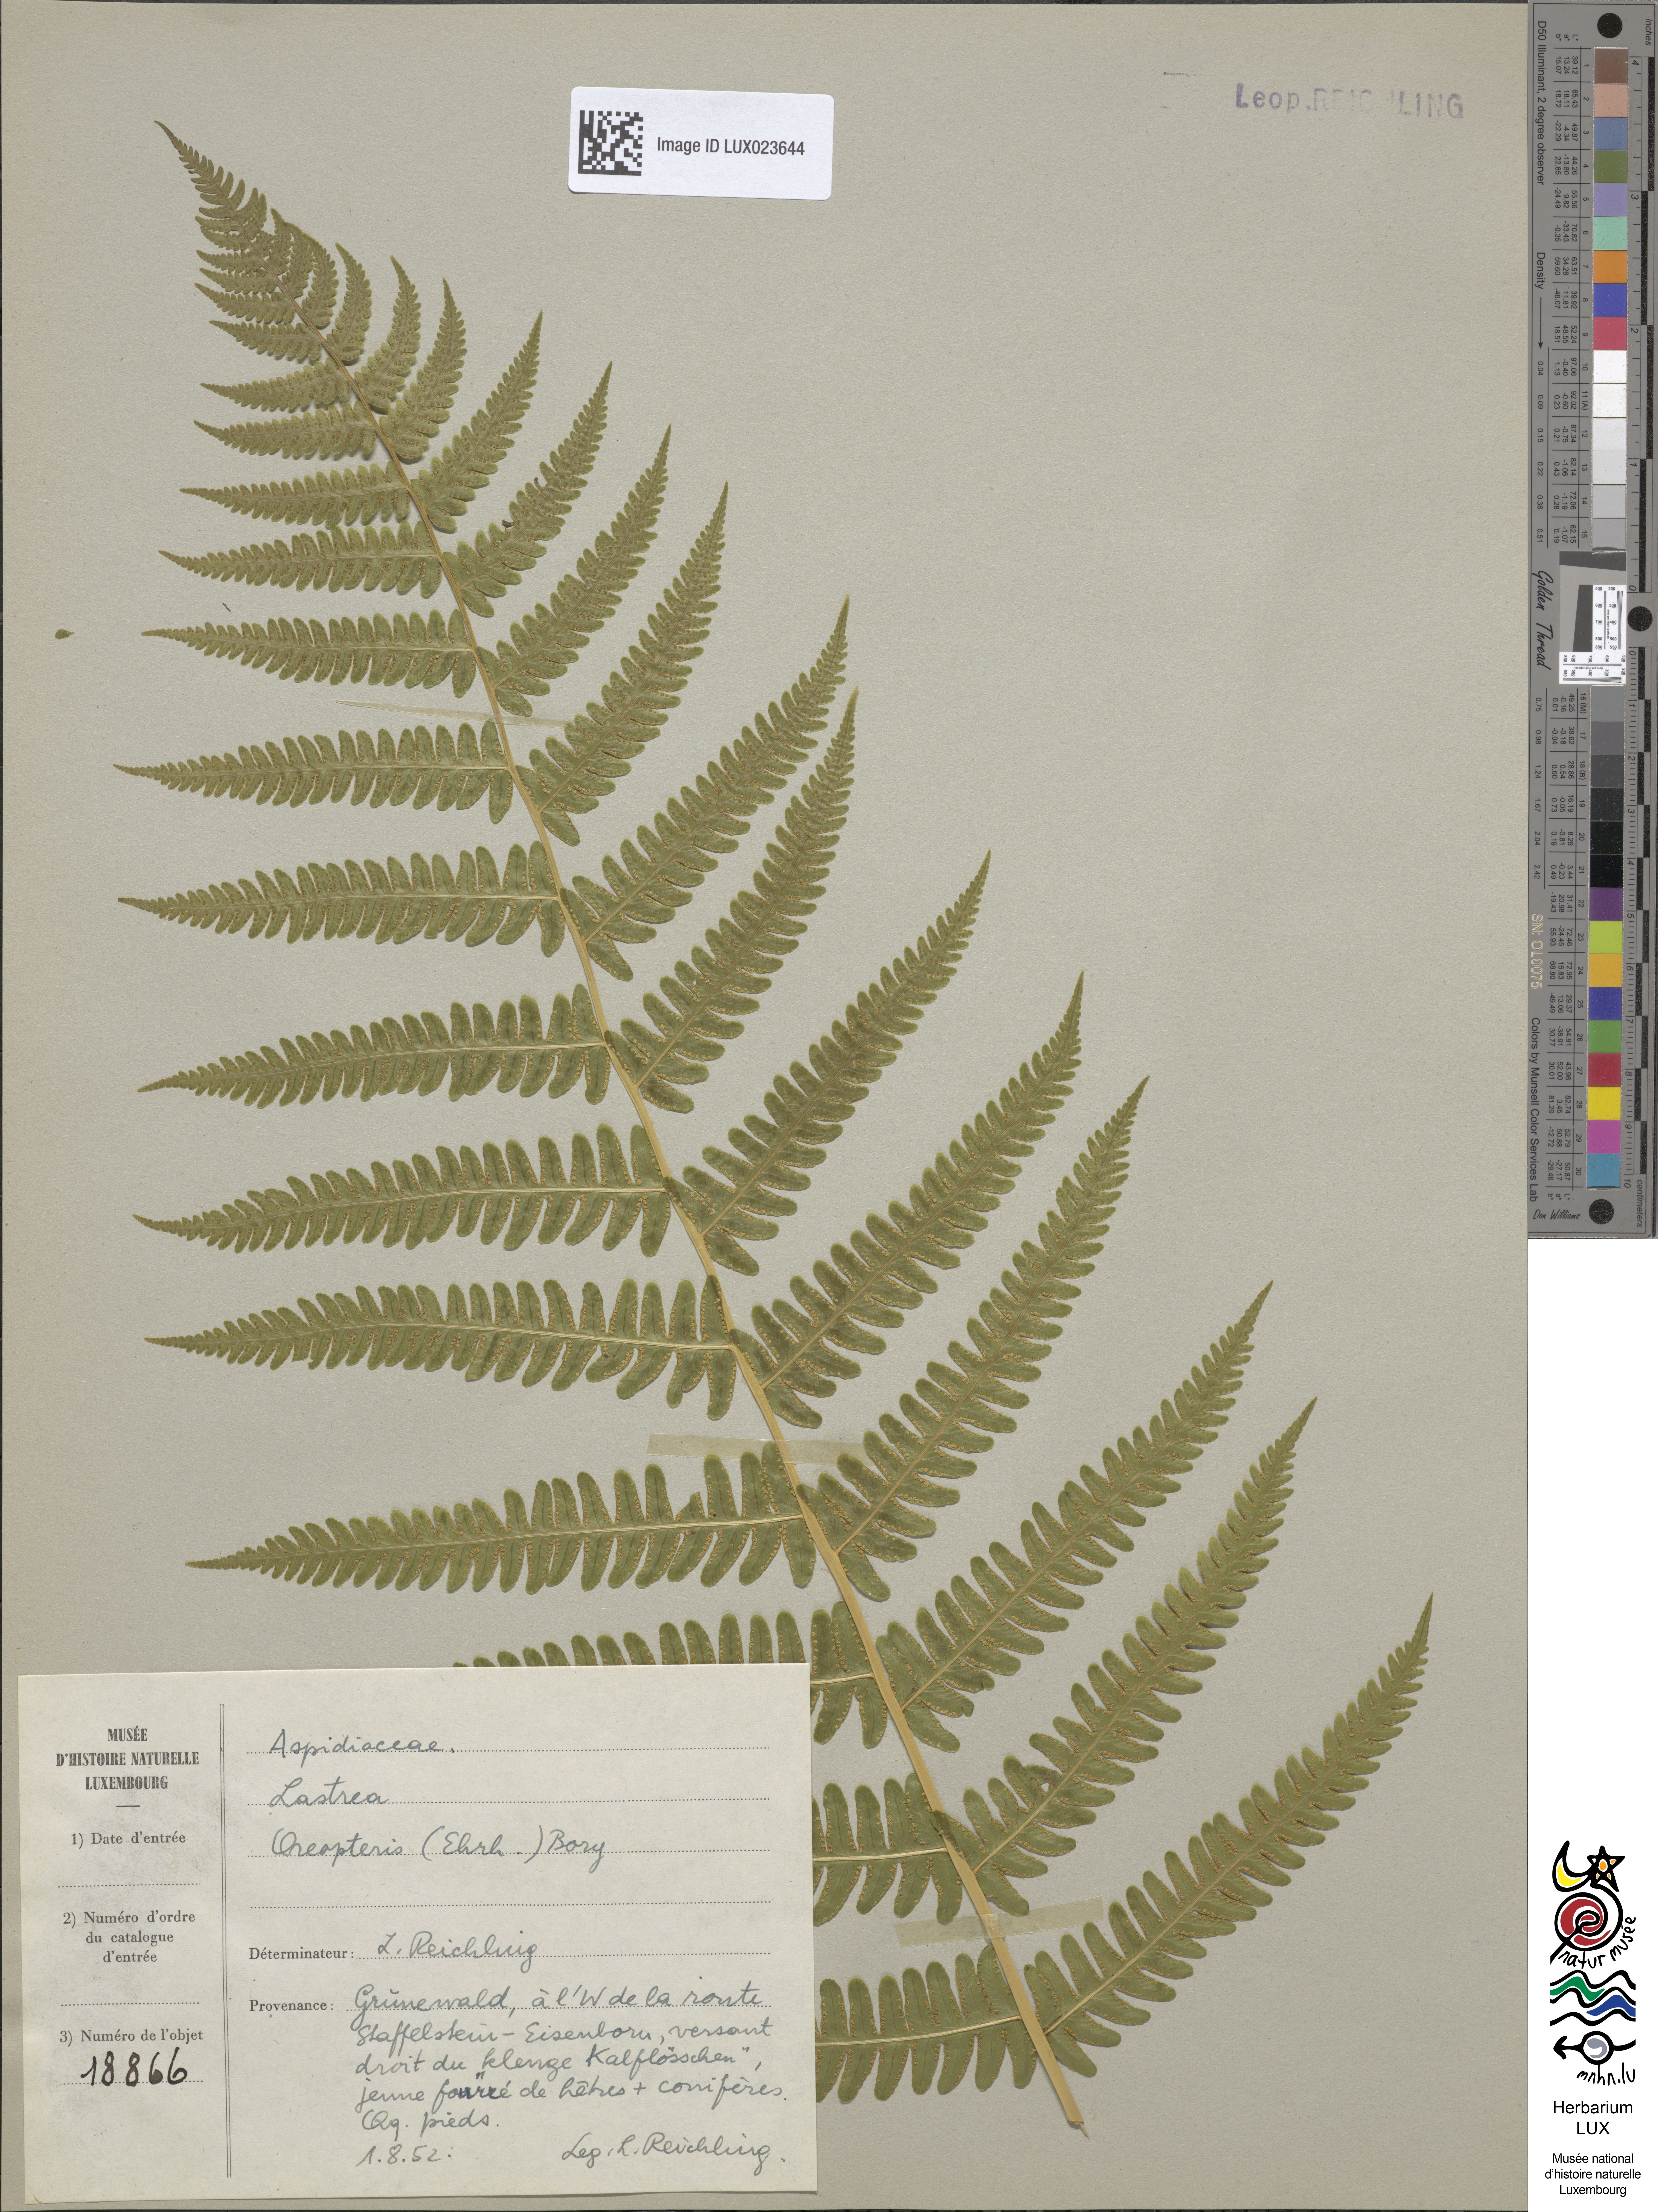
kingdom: Plantae
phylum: Tracheophyta
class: Polypodiopsida
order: Polypodiales
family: Thelypteridaceae
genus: Oreopteris
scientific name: Oreopteris limbosperma
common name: Lemon-scented fern
